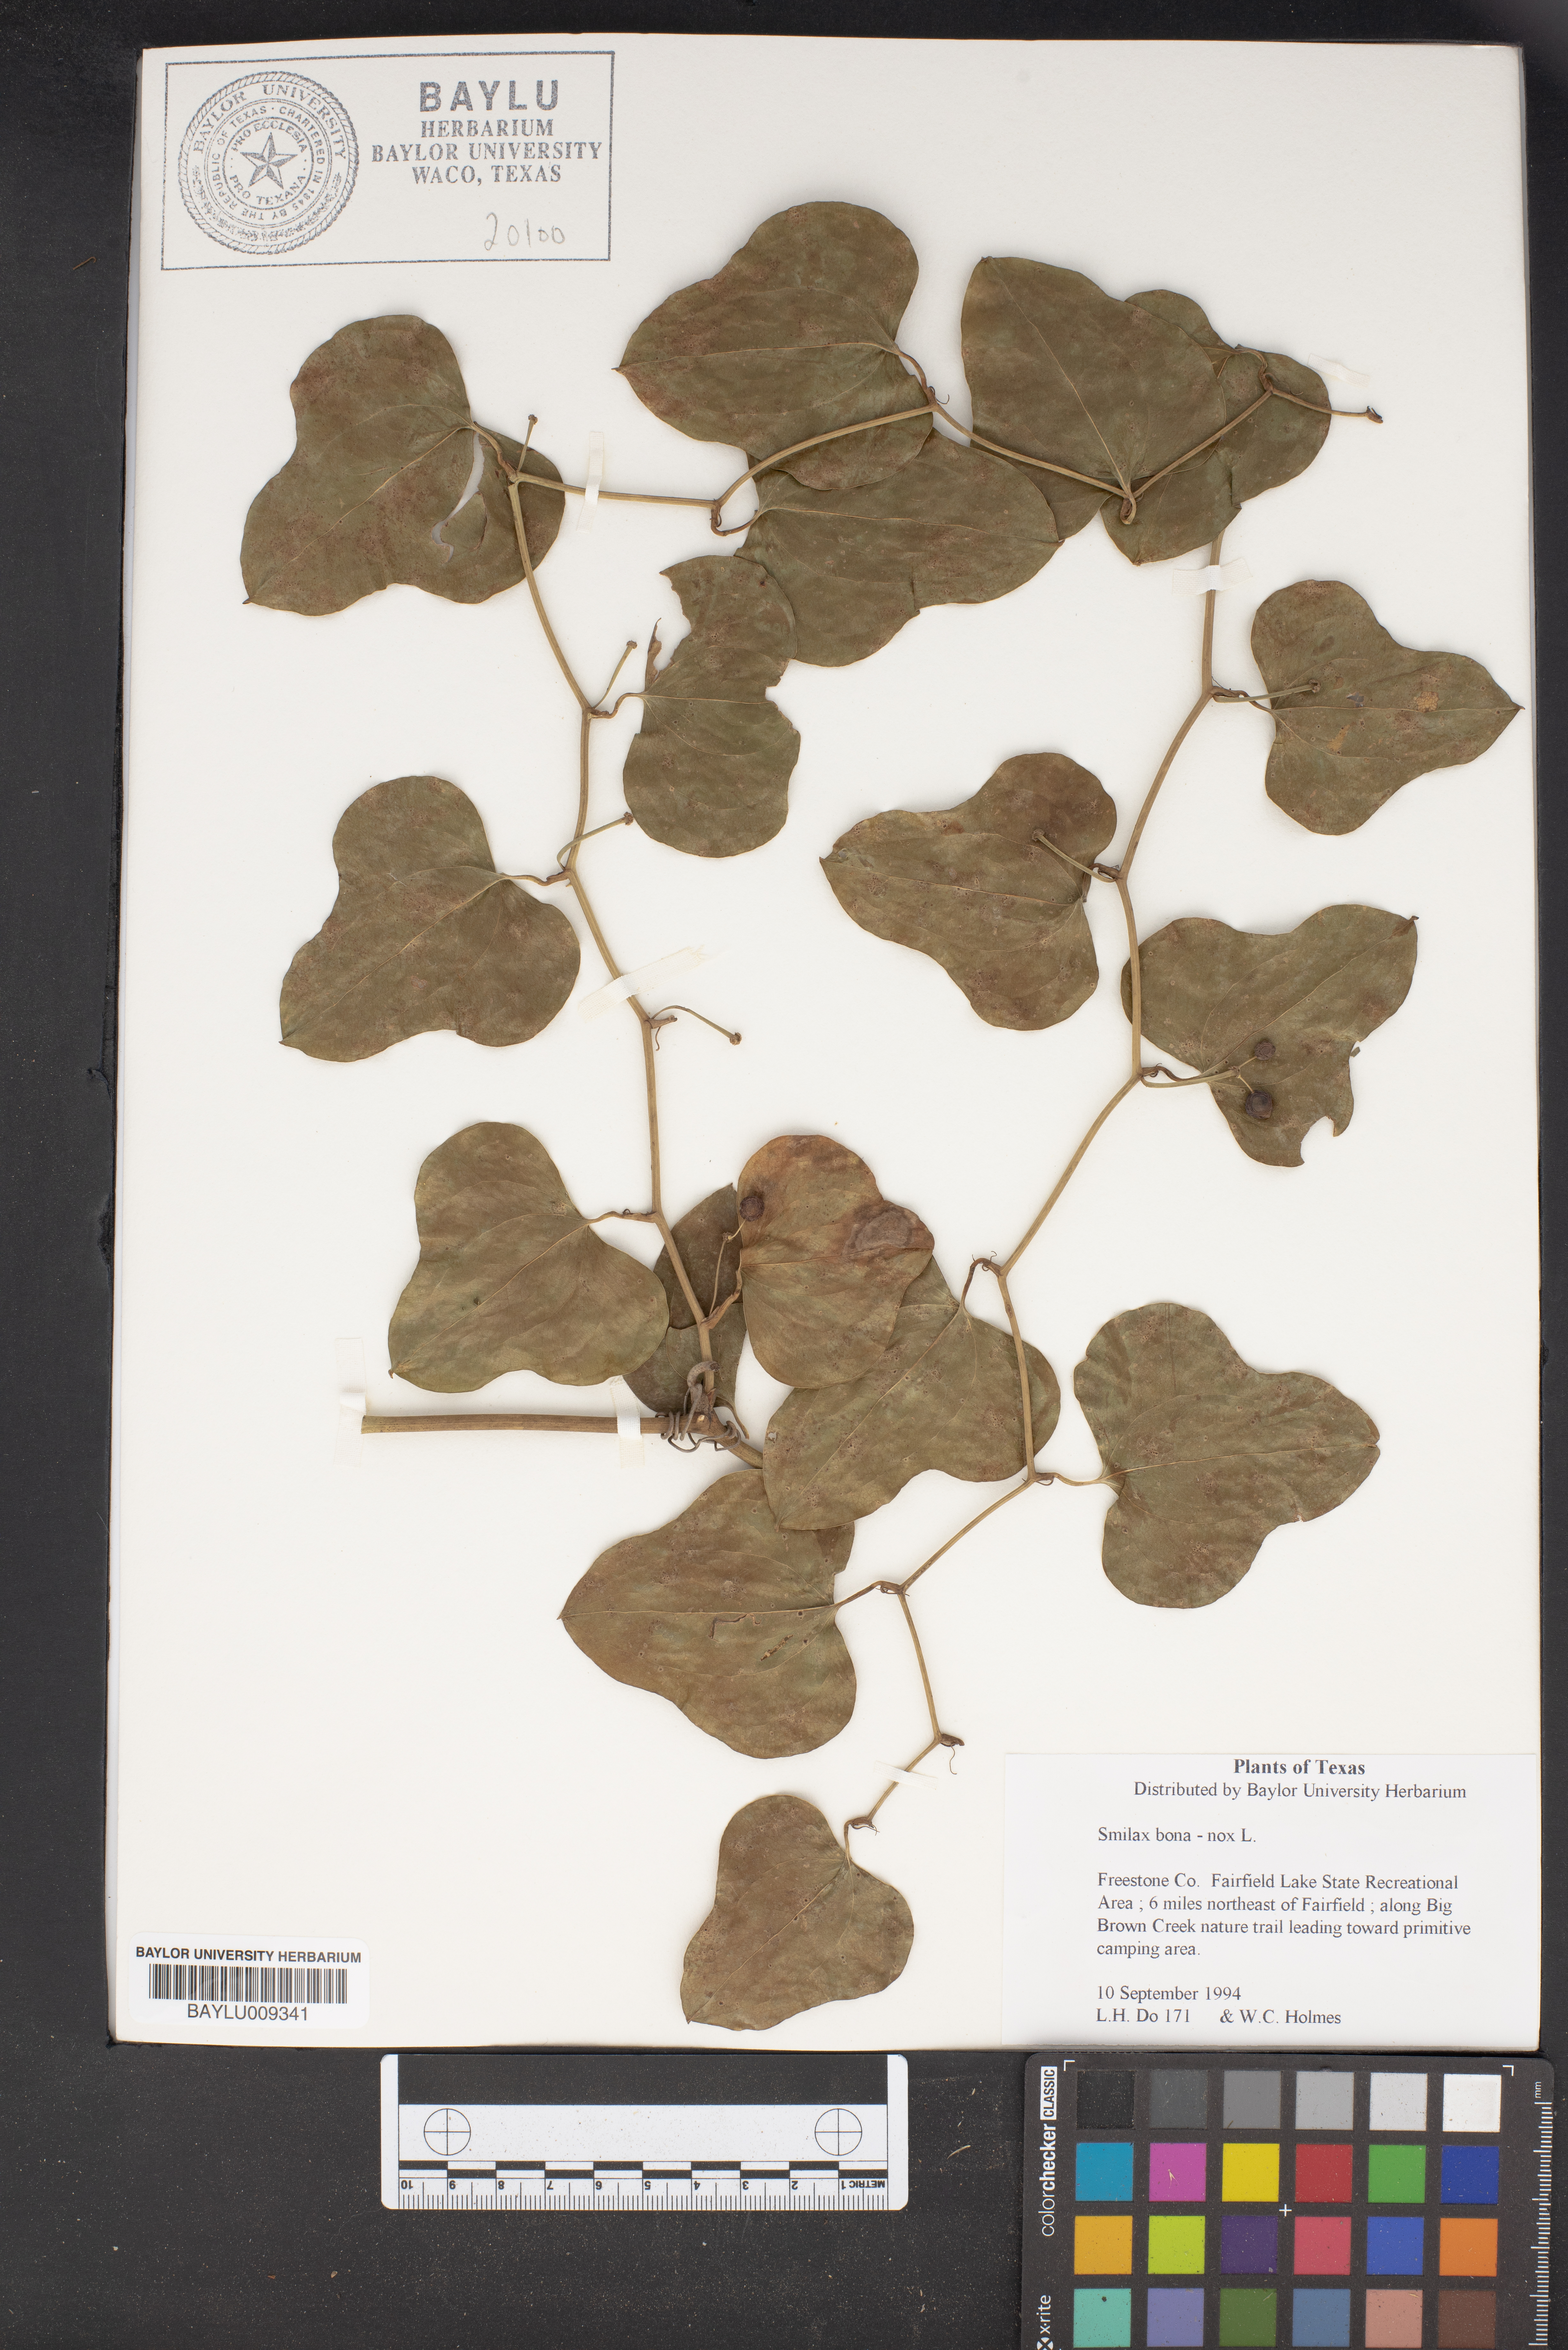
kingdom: Plantae
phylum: Tracheophyta
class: Liliopsida
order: Liliales
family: Smilacaceae
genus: Smilax
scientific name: Smilax bona-nox
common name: Catbrier
